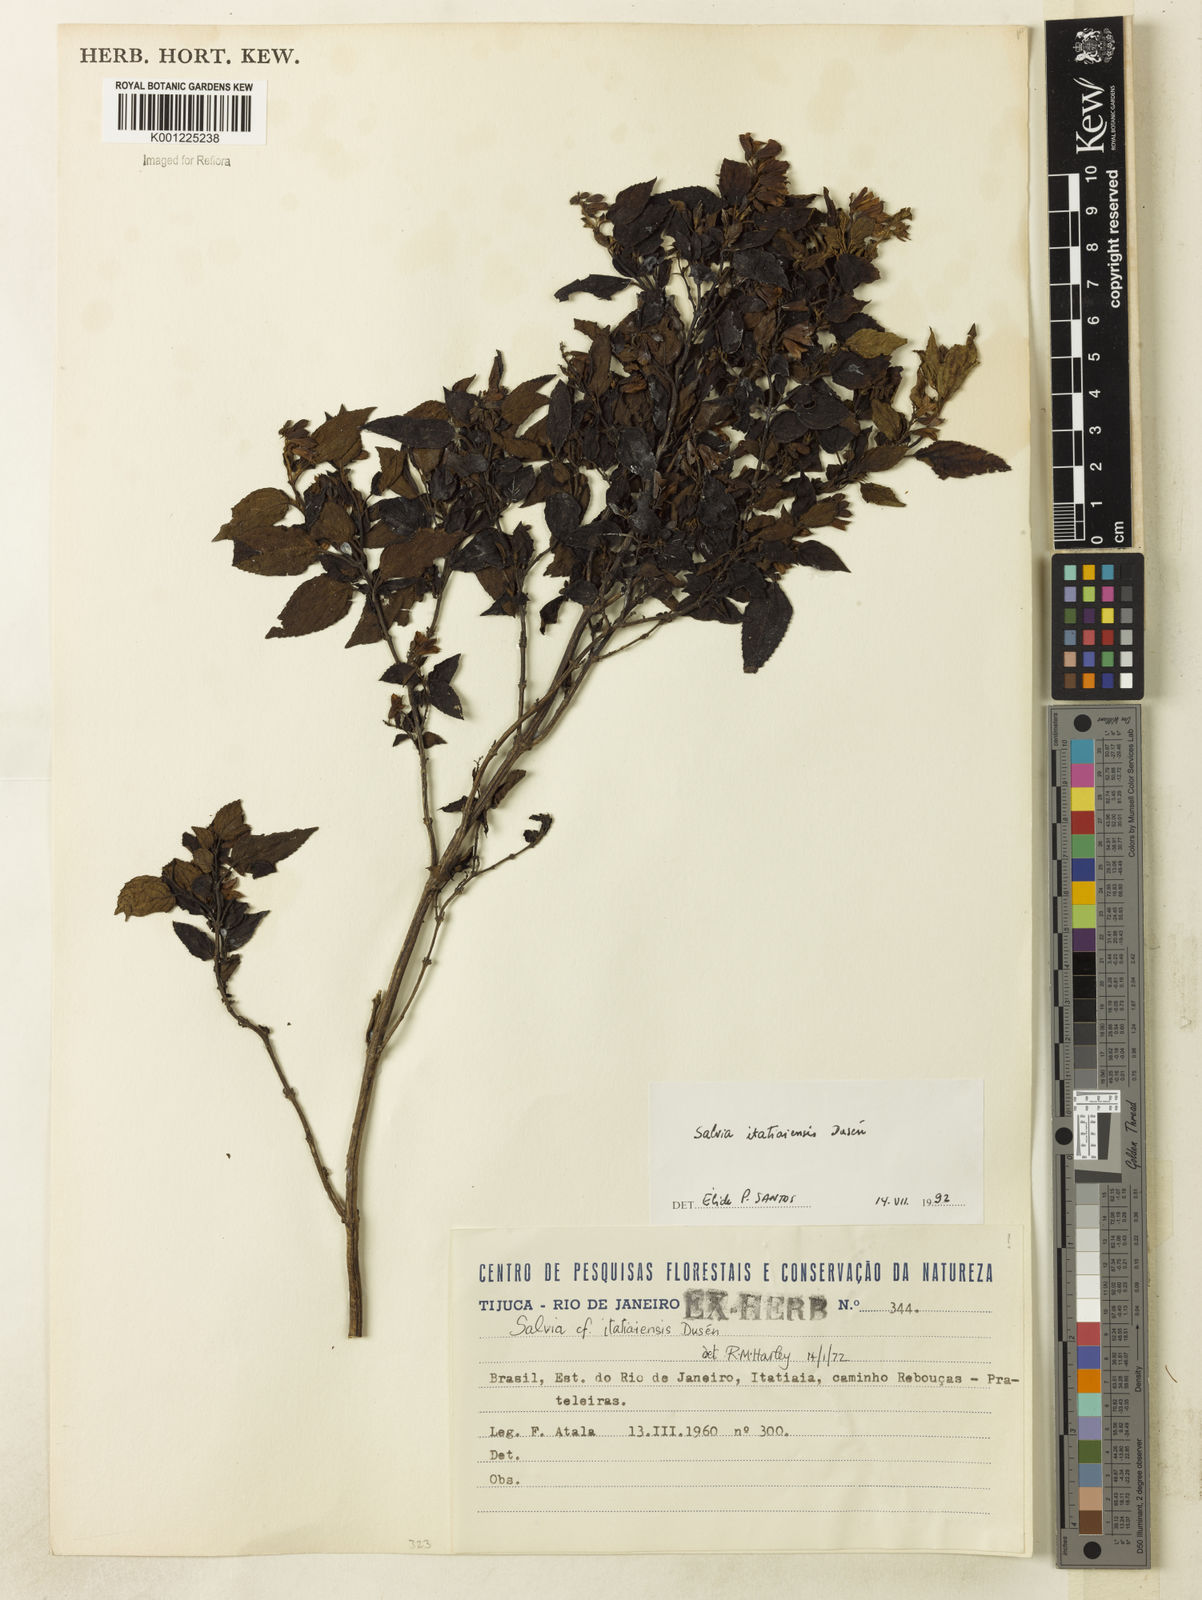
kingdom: Plantae
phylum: Tracheophyta
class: Magnoliopsida
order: Lamiales
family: Lamiaceae
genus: Salvia
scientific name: Salvia
